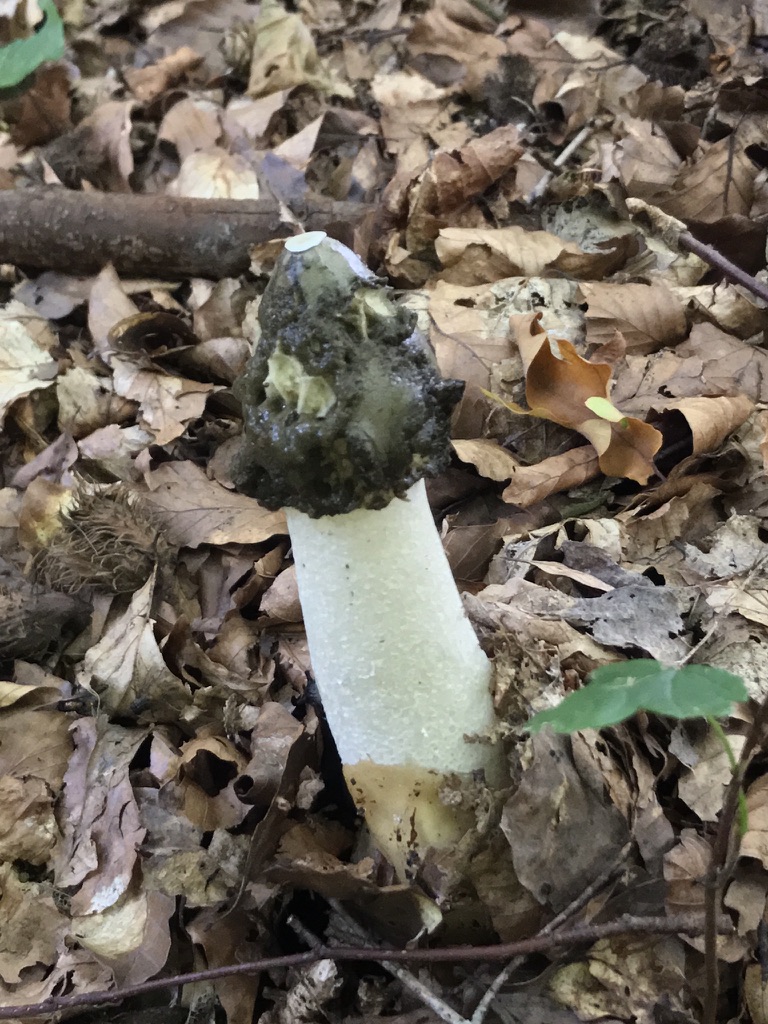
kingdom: Fungi
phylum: Basidiomycota
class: Agaricomycetes
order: Phallales
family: Phallaceae
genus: Phallus
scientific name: Phallus impudicus
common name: almindelig stinksvamp
